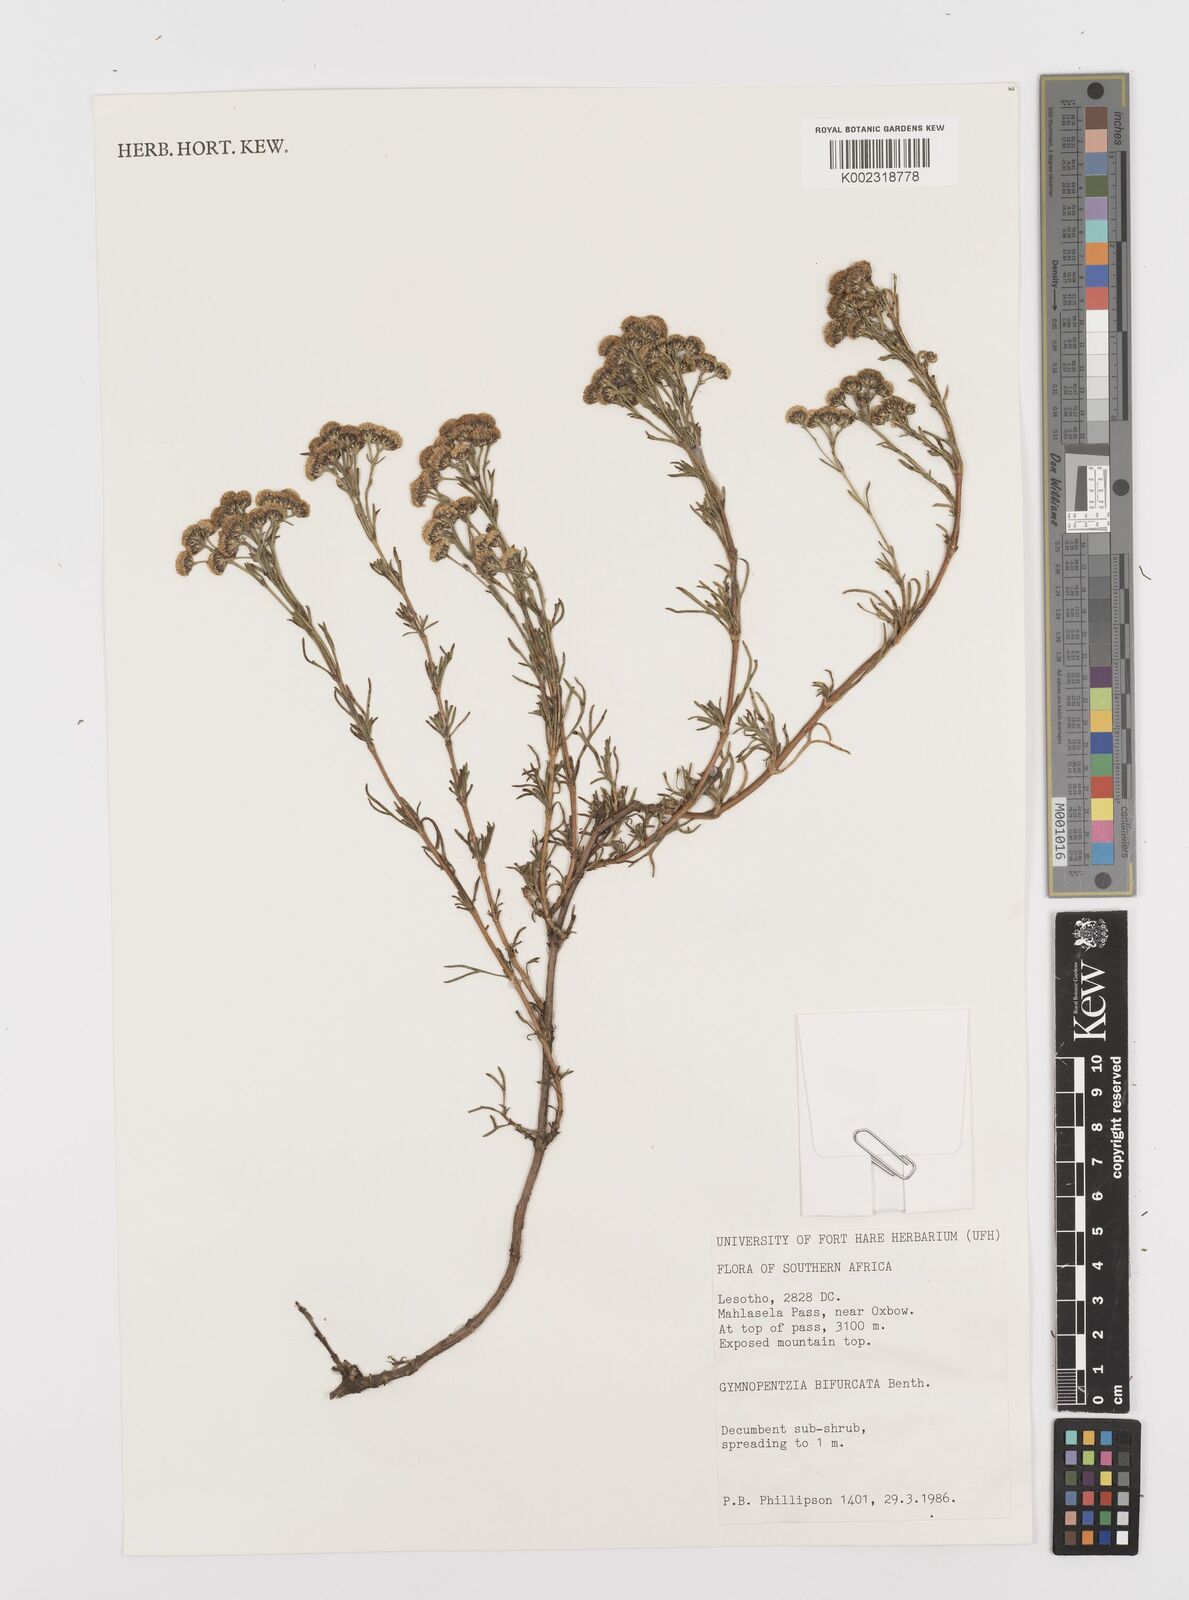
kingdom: Plantae
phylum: Tracheophyta
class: Magnoliopsida
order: Asterales
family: Asteraceae
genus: Gymnopentzia
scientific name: Gymnopentzia bifurcata
